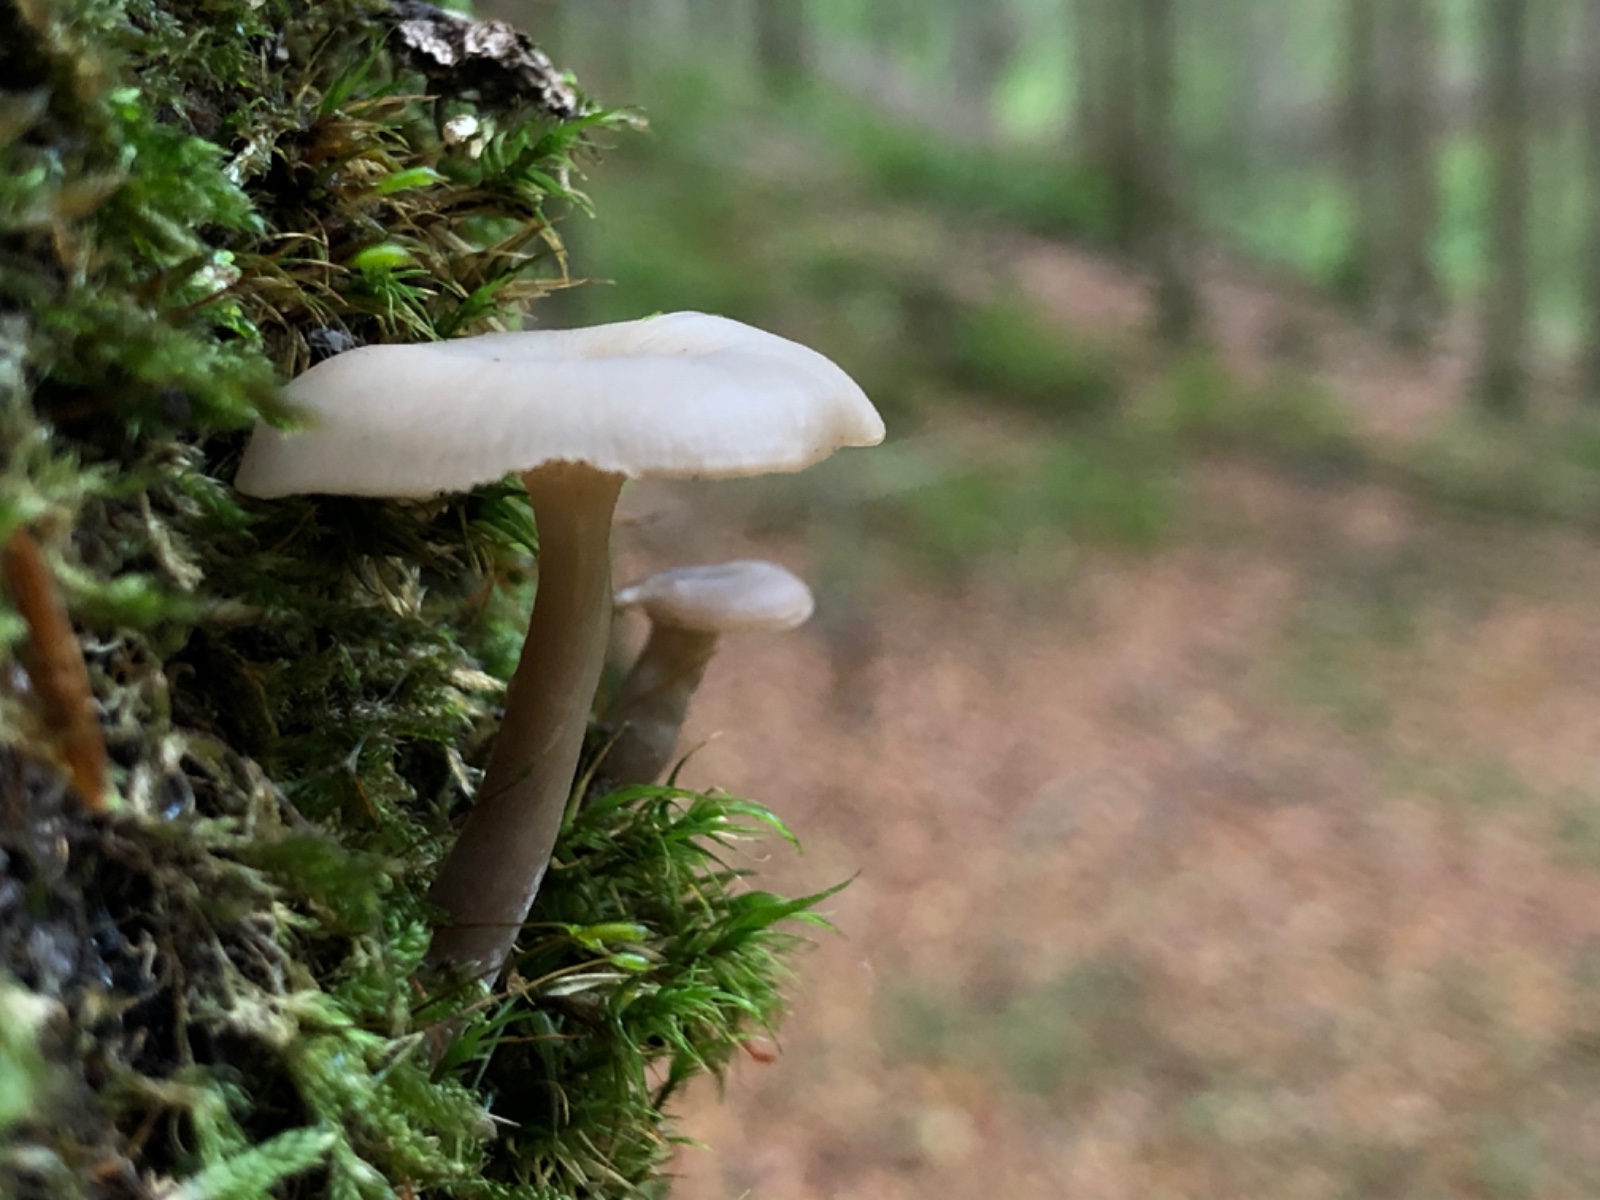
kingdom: Fungi
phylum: Basidiomycota
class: Agaricomycetes
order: Agaricales
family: Tricholomataceae
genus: Clitocybe
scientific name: Clitocybe metachroa
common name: grå tragthat
